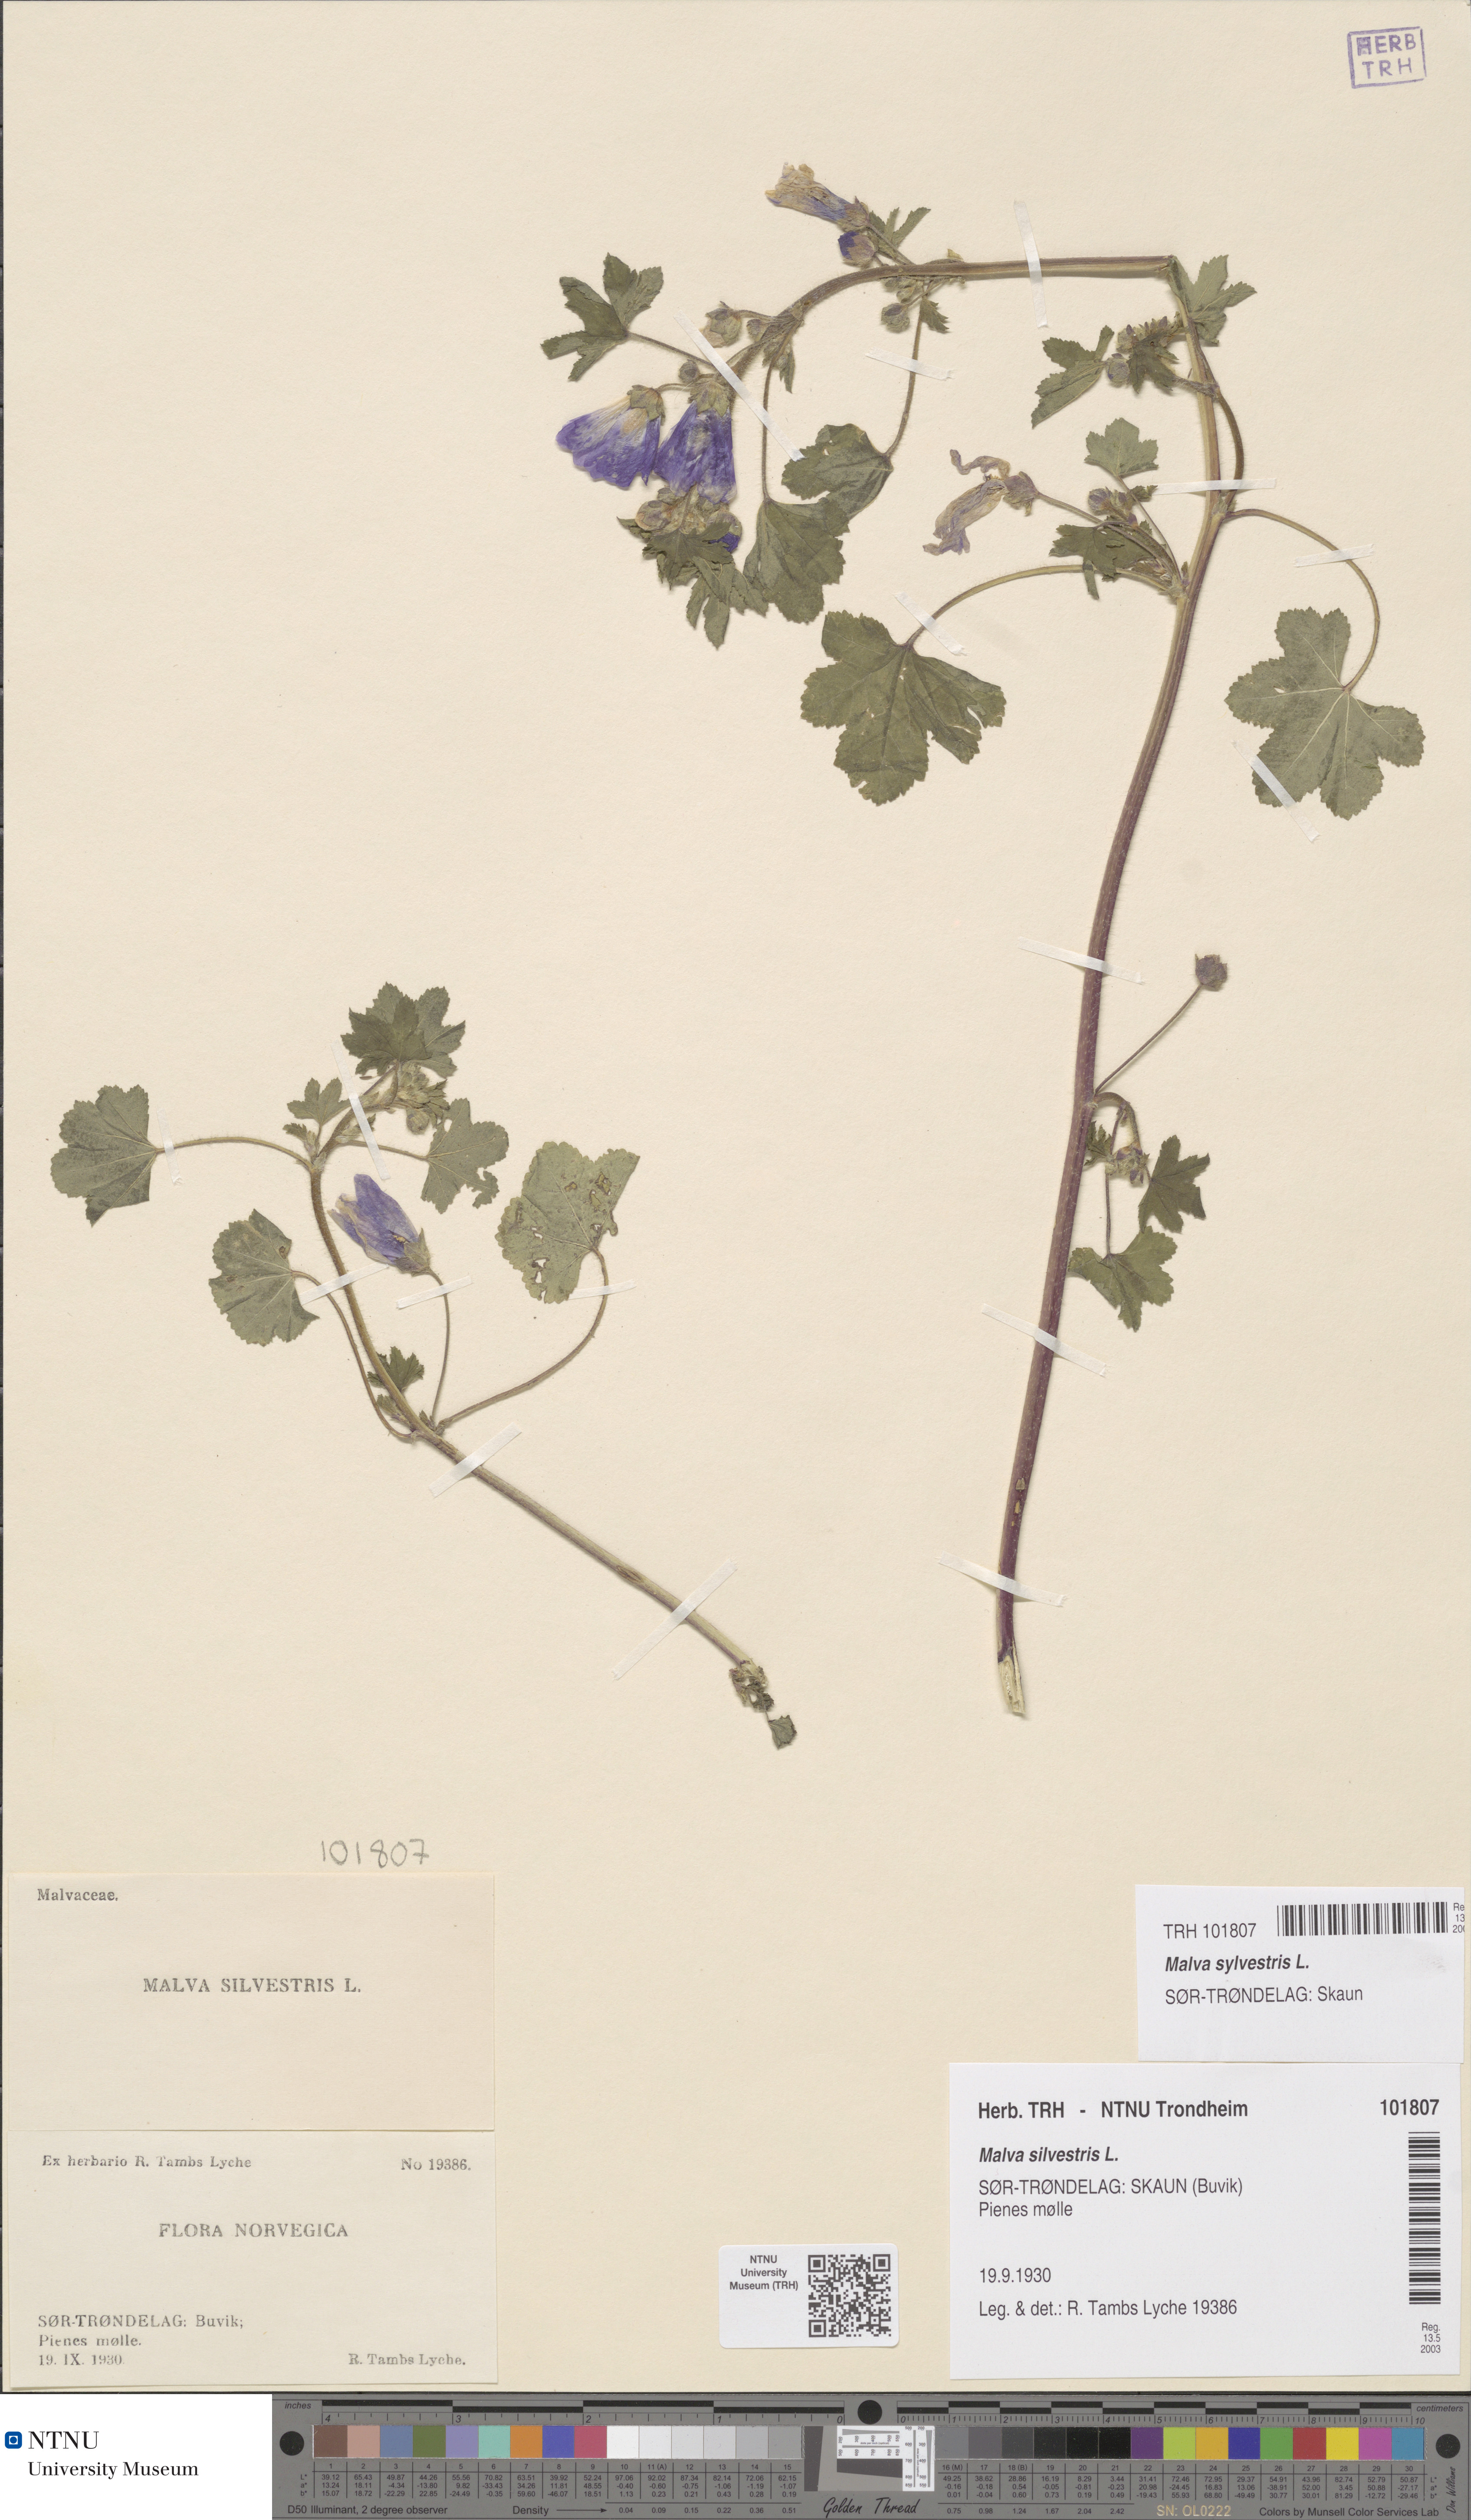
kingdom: Plantae
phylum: Tracheophyta
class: Magnoliopsida
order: Malvales
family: Malvaceae
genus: Malva
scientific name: Malva sylvestris
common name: Common mallow
